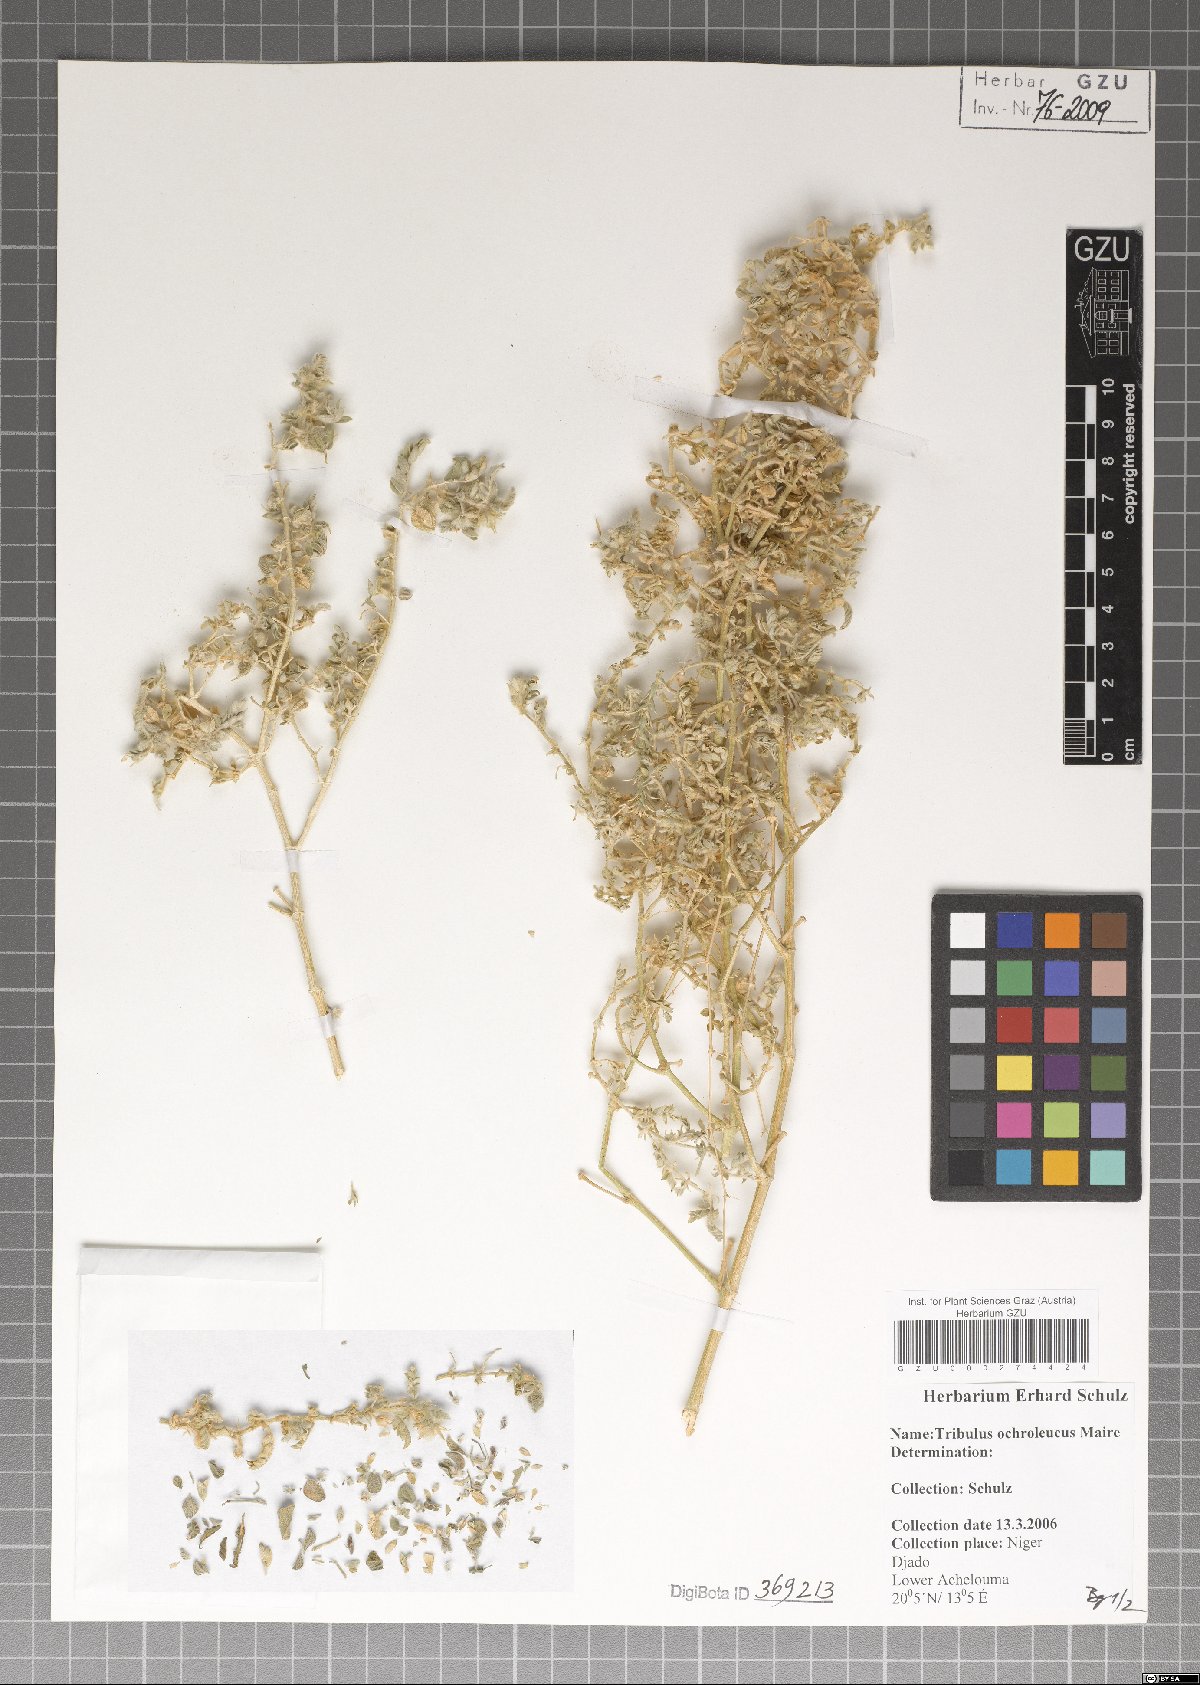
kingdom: Plantae
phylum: Tracheophyta
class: Magnoliopsida
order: Zygophyllales
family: Zygophyllaceae
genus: Tribulus
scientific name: Tribulus ochroleucus
